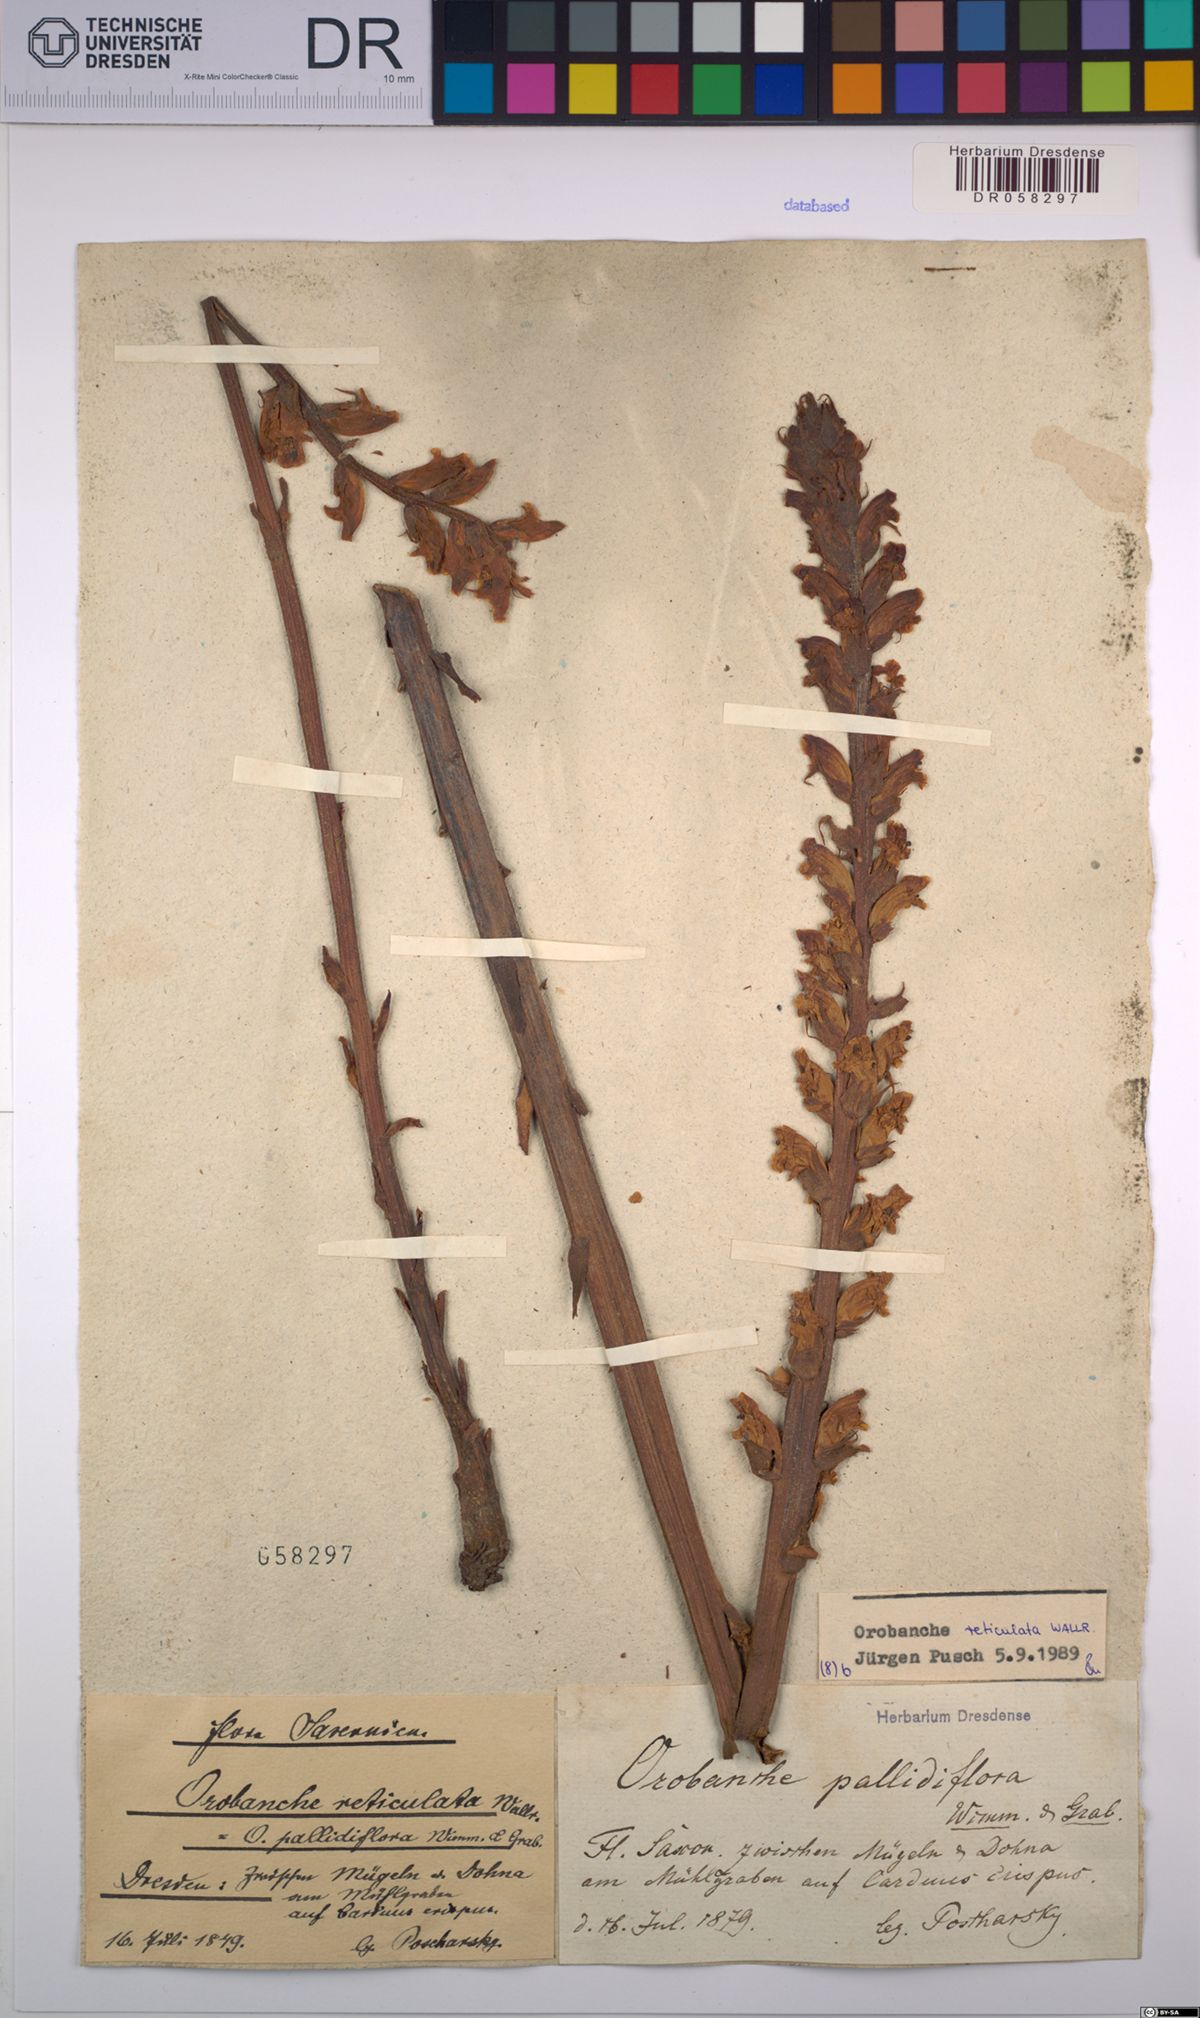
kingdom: Plantae
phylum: Tracheophyta
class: Magnoliopsida
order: Lamiales
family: Orobanchaceae
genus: Orobanche
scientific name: Orobanche reticulata
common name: Thistle broomrape
